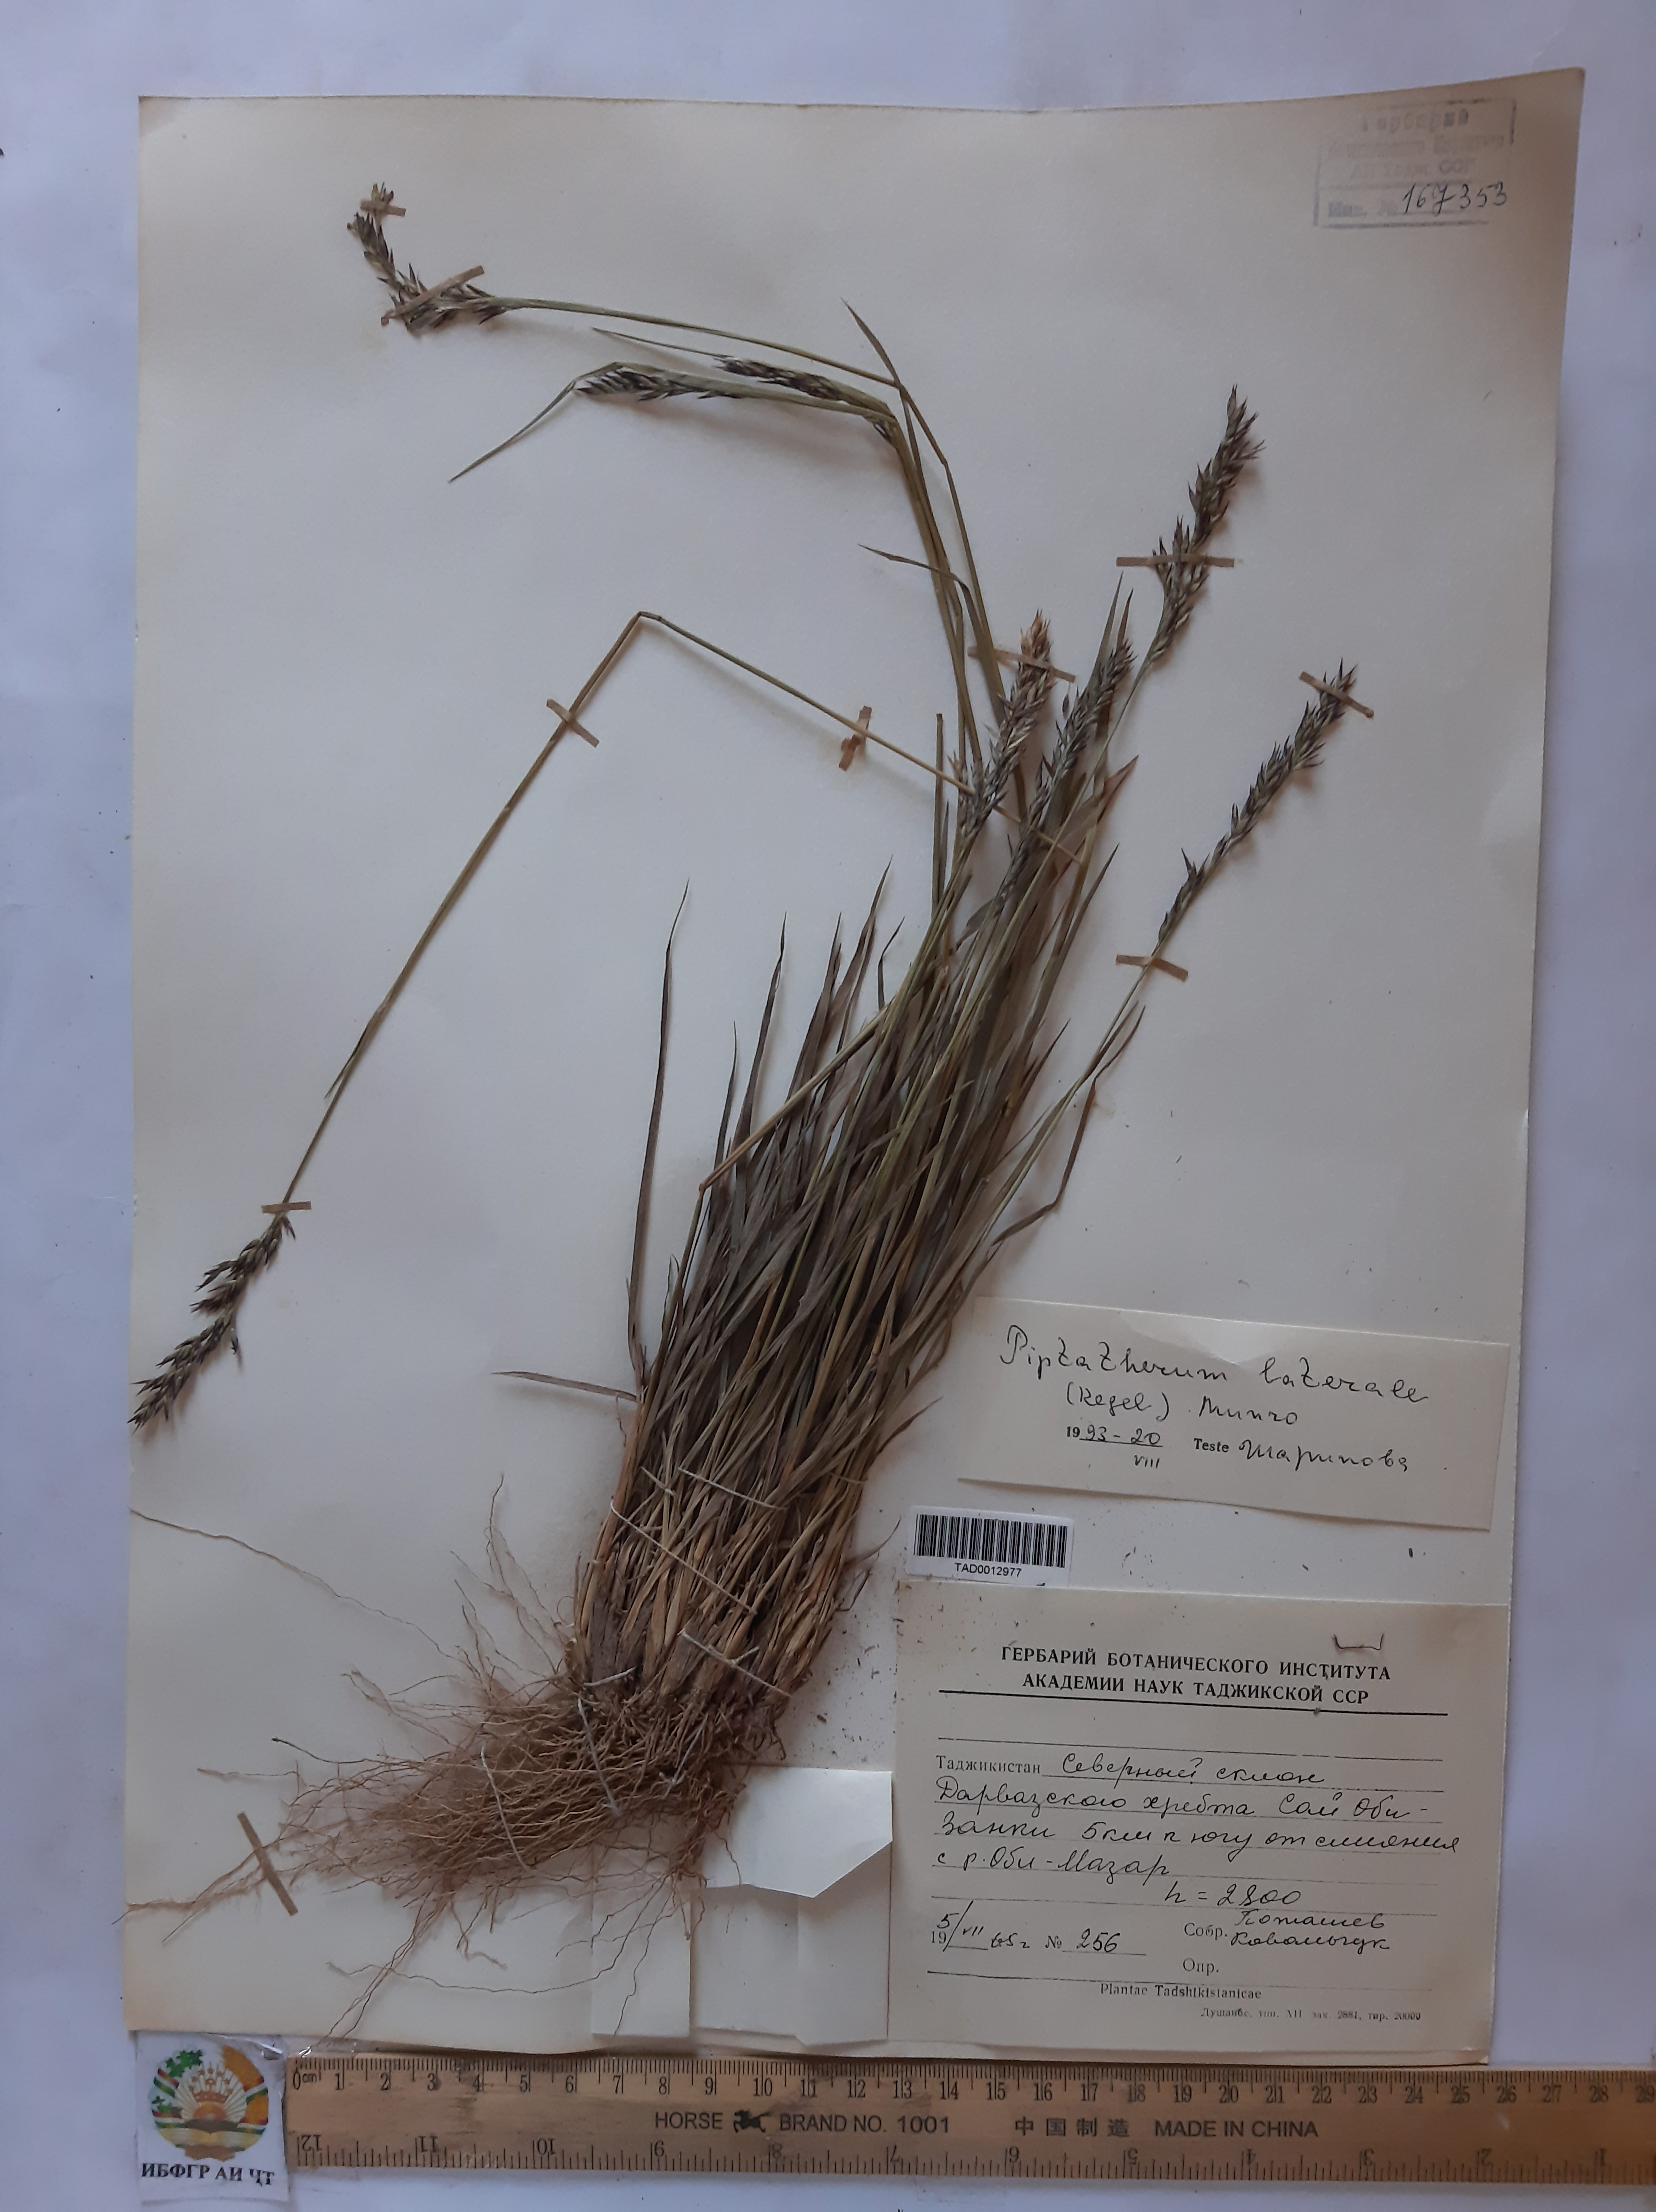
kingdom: Plantae
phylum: Tracheophyta
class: Liliopsida
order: Poales
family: Poaceae
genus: Piptatherum
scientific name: Piptatherum laterale
